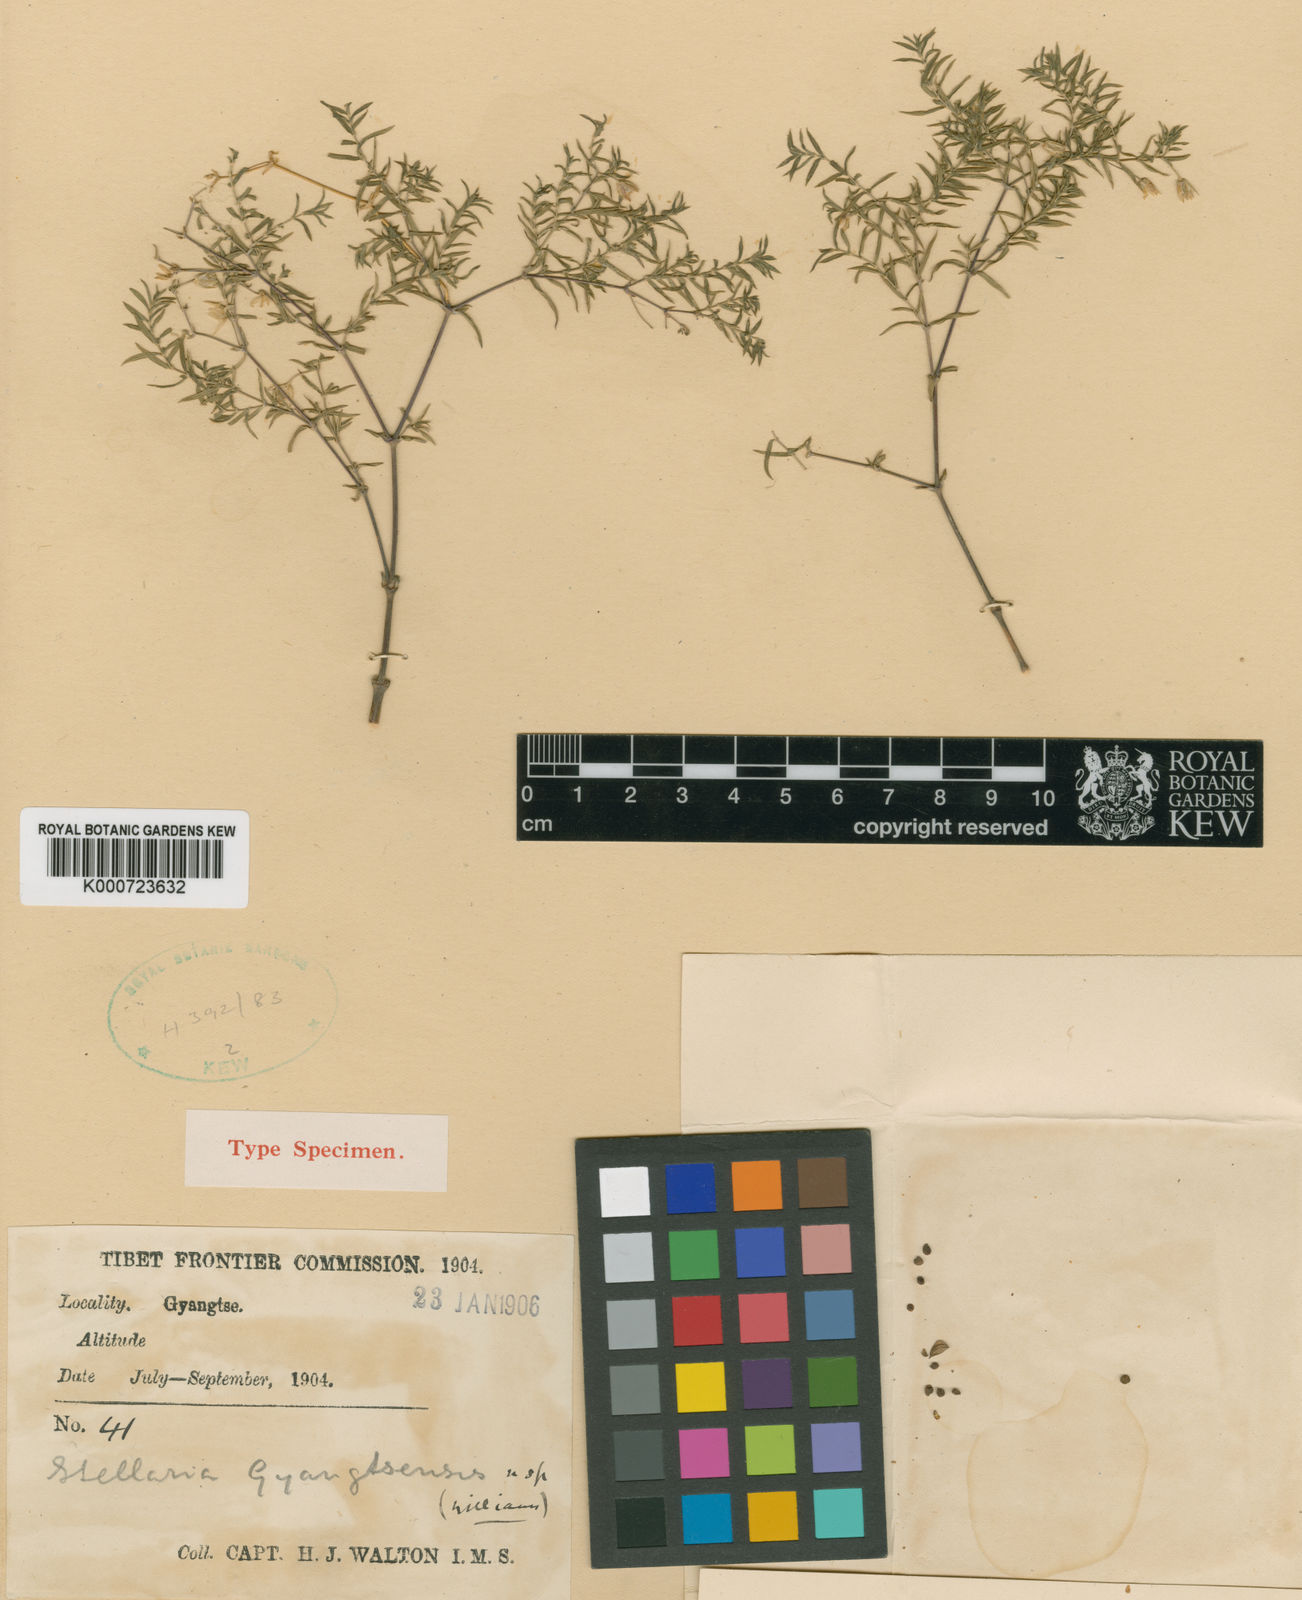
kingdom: Plantae
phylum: Tracheophyta
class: Magnoliopsida
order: Caryophyllales
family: Caryophyllaceae
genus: Stellaria
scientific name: Stellaria gyangtsensis
